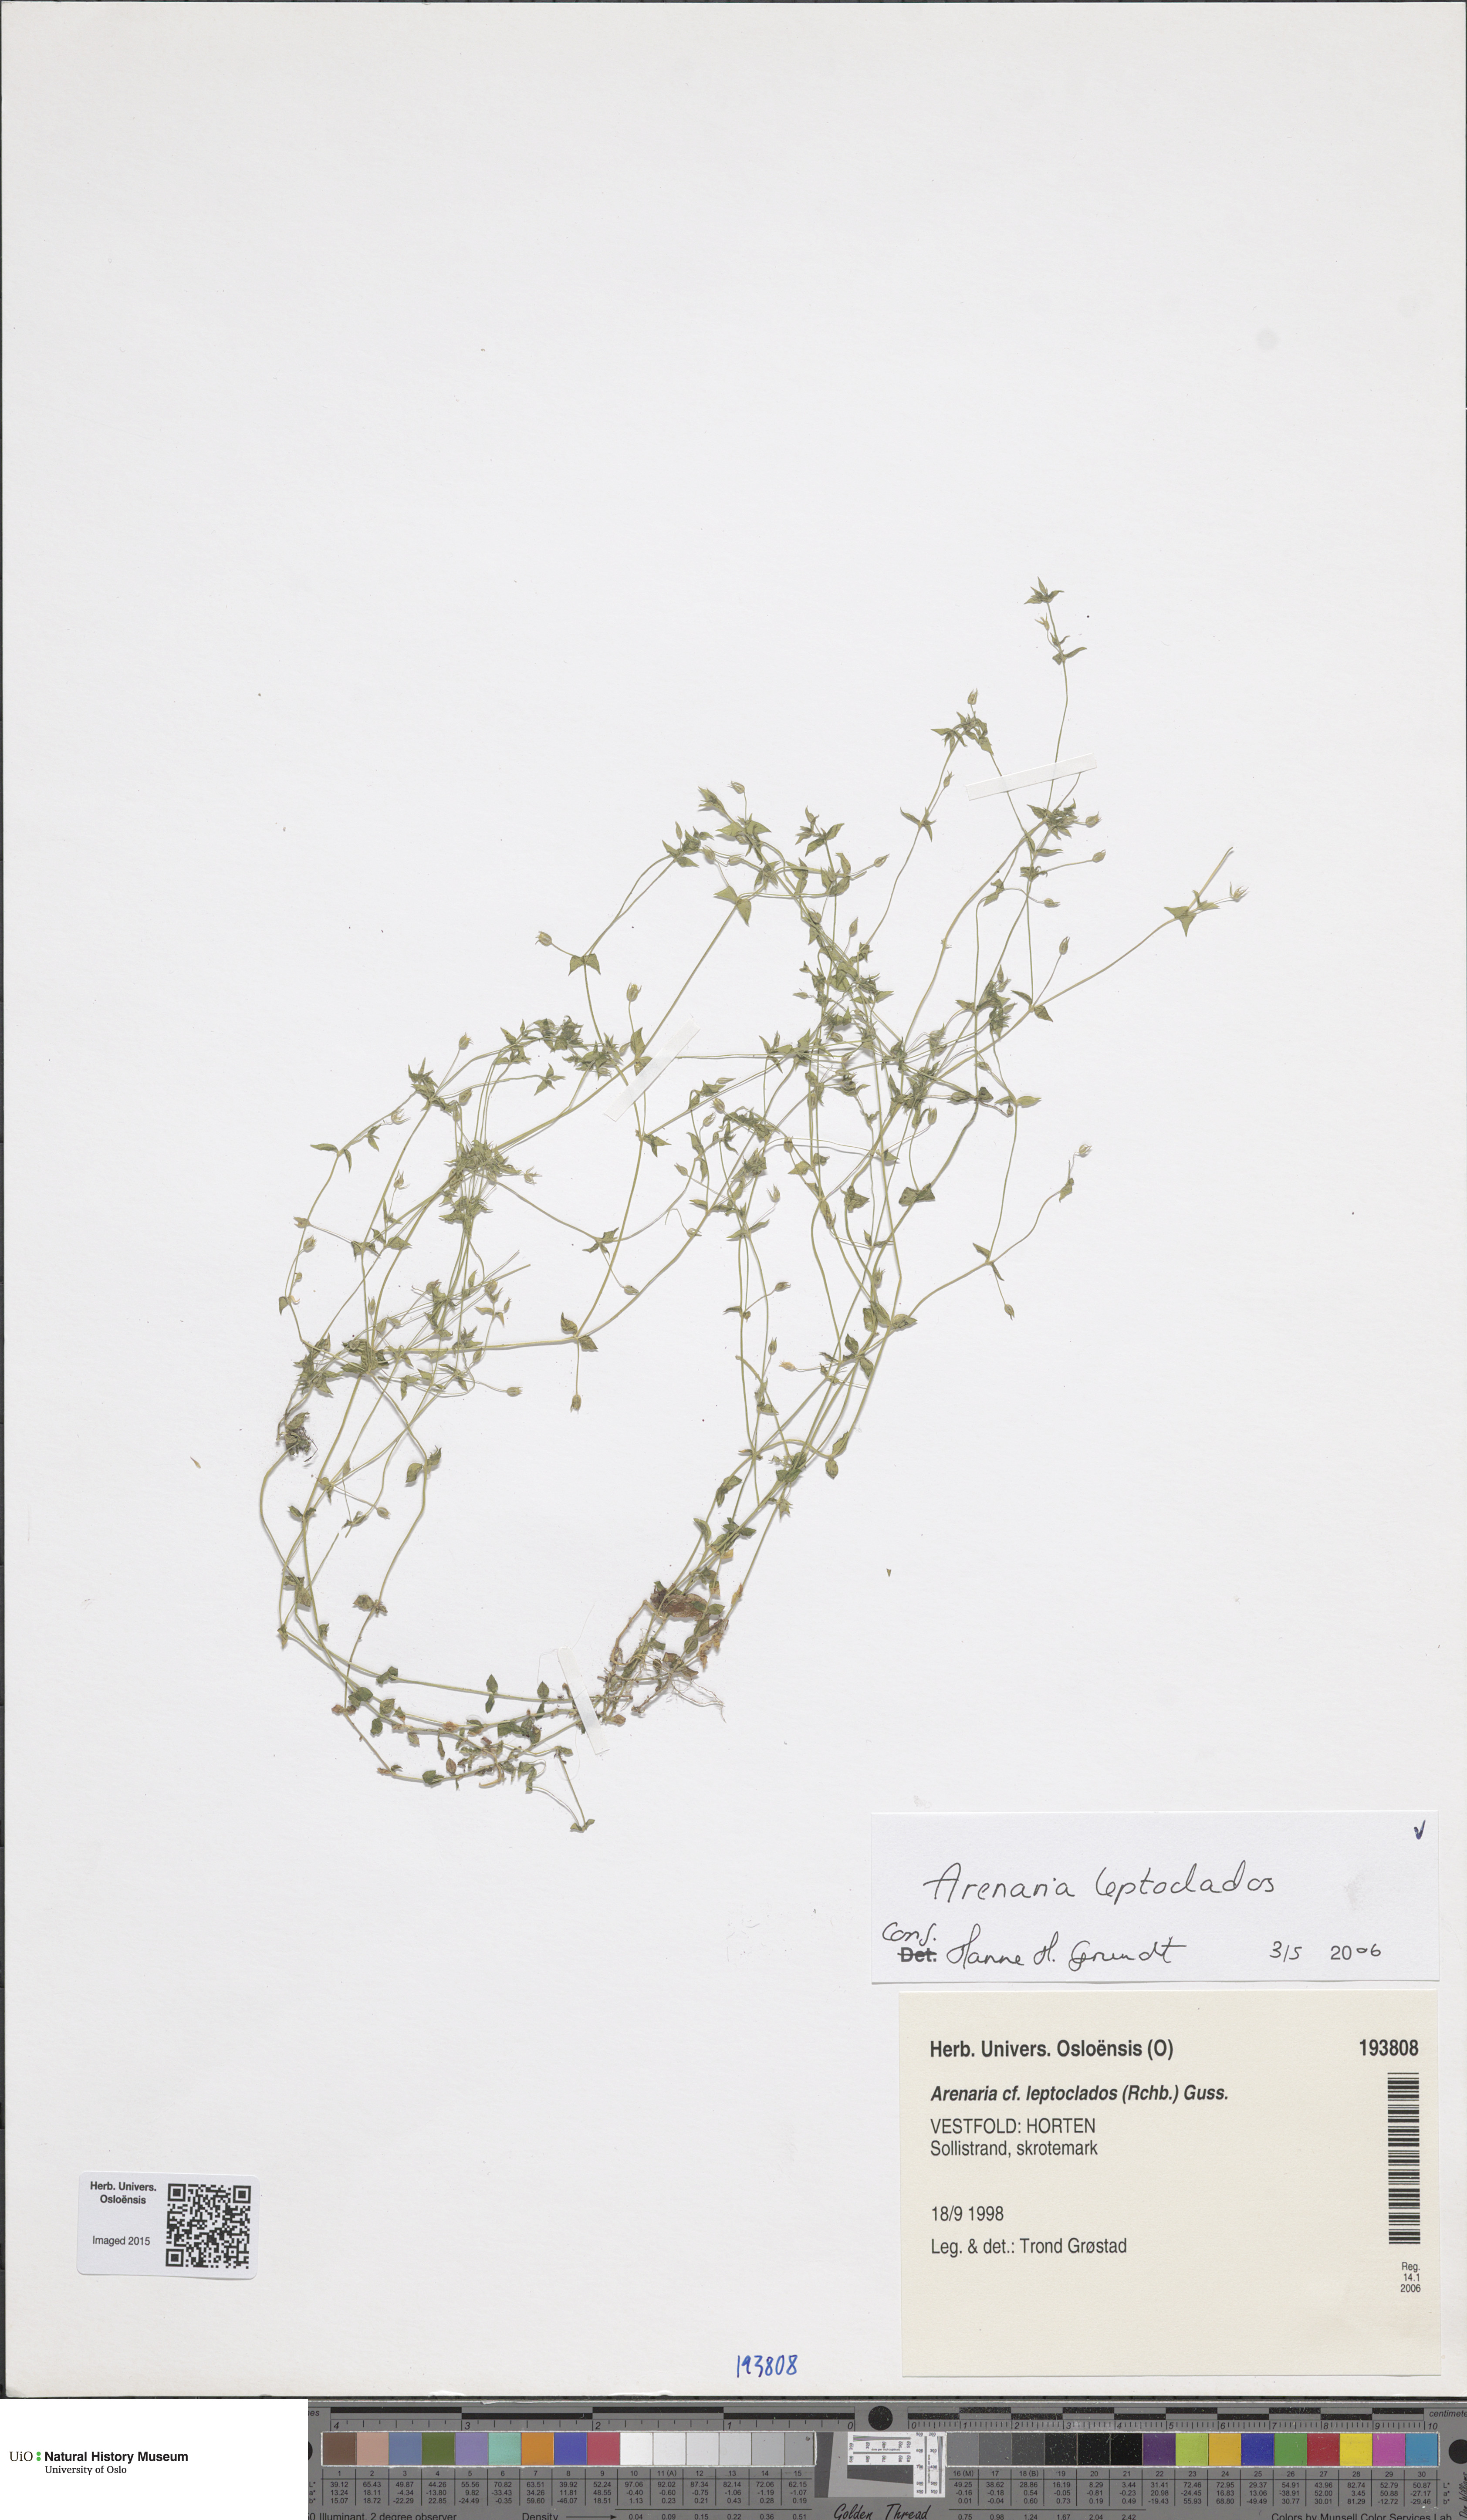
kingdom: Plantae
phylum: Tracheophyta
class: Magnoliopsida
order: Caryophyllales
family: Caryophyllaceae
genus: Arenaria
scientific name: Arenaria leptoclados
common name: Thyme-leaved sandwort
